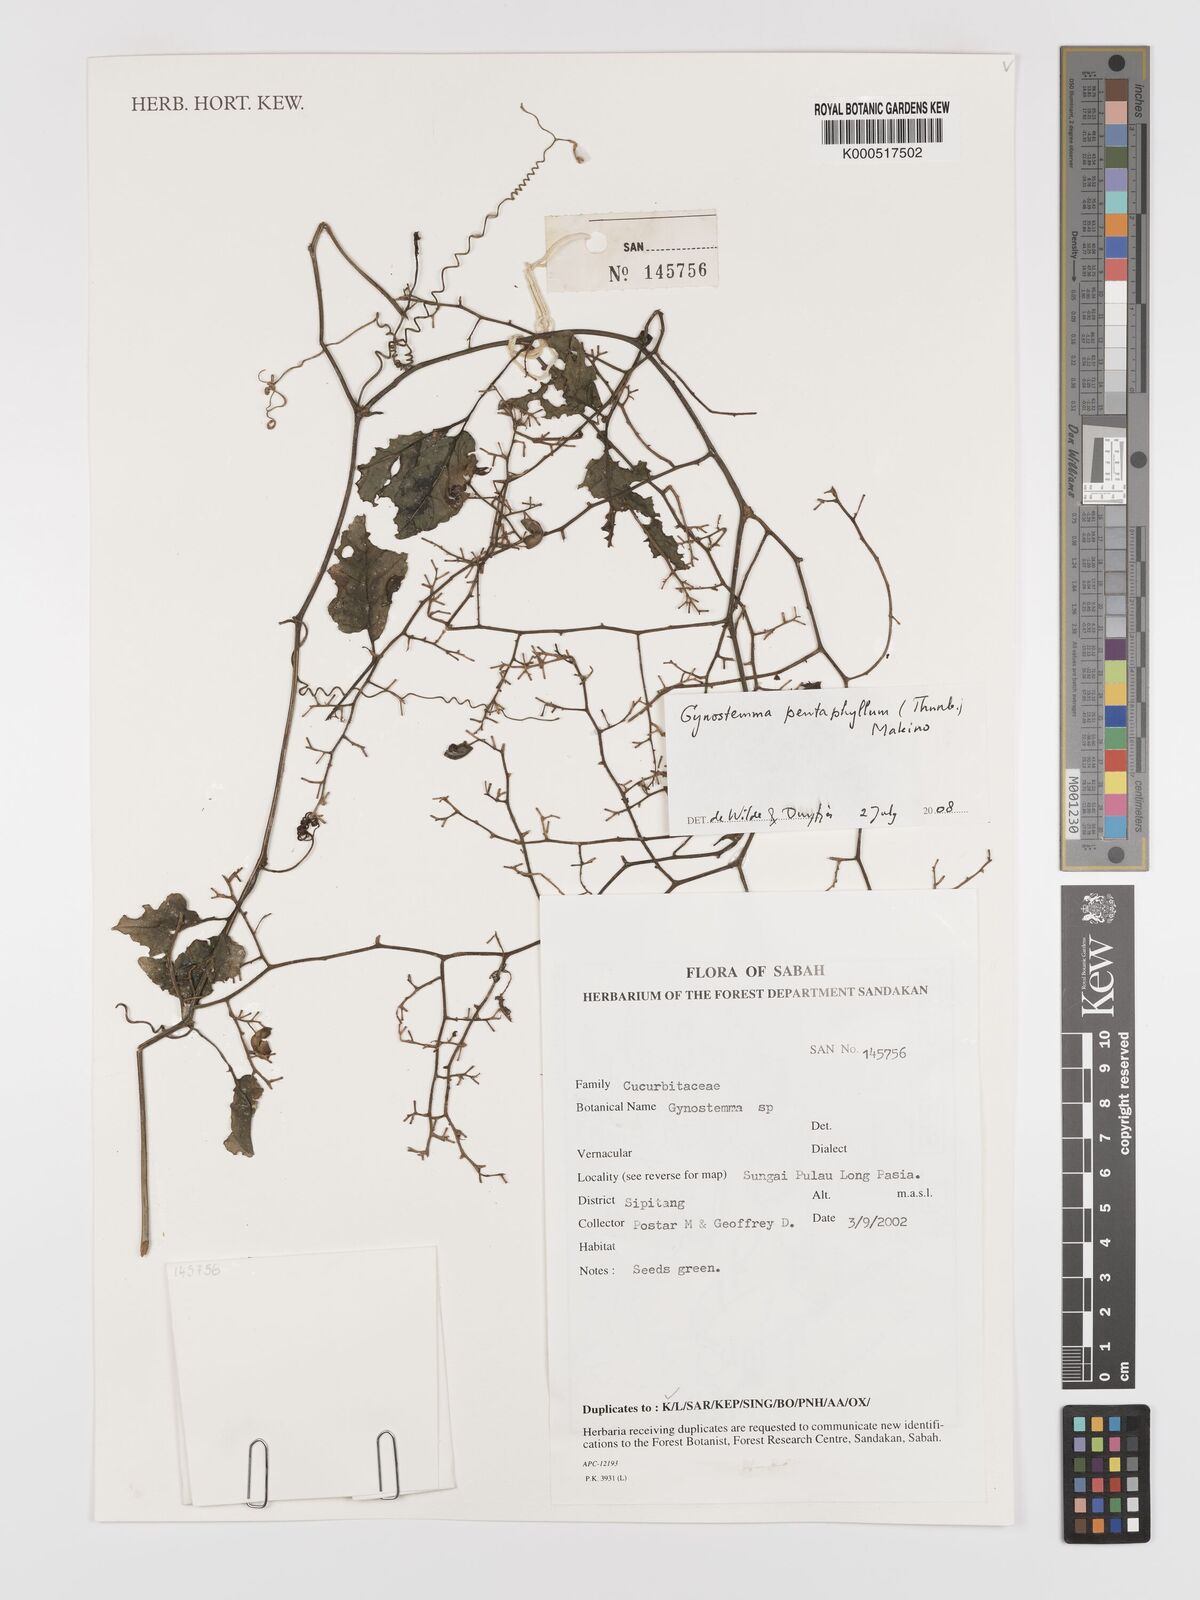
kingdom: Plantae
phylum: Tracheophyta
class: Magnoliopsida
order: Cucurbitales
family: Cucurbitaceae
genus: Gynostemma
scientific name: Gynostemma pentaphyllum
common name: Gynostemma
